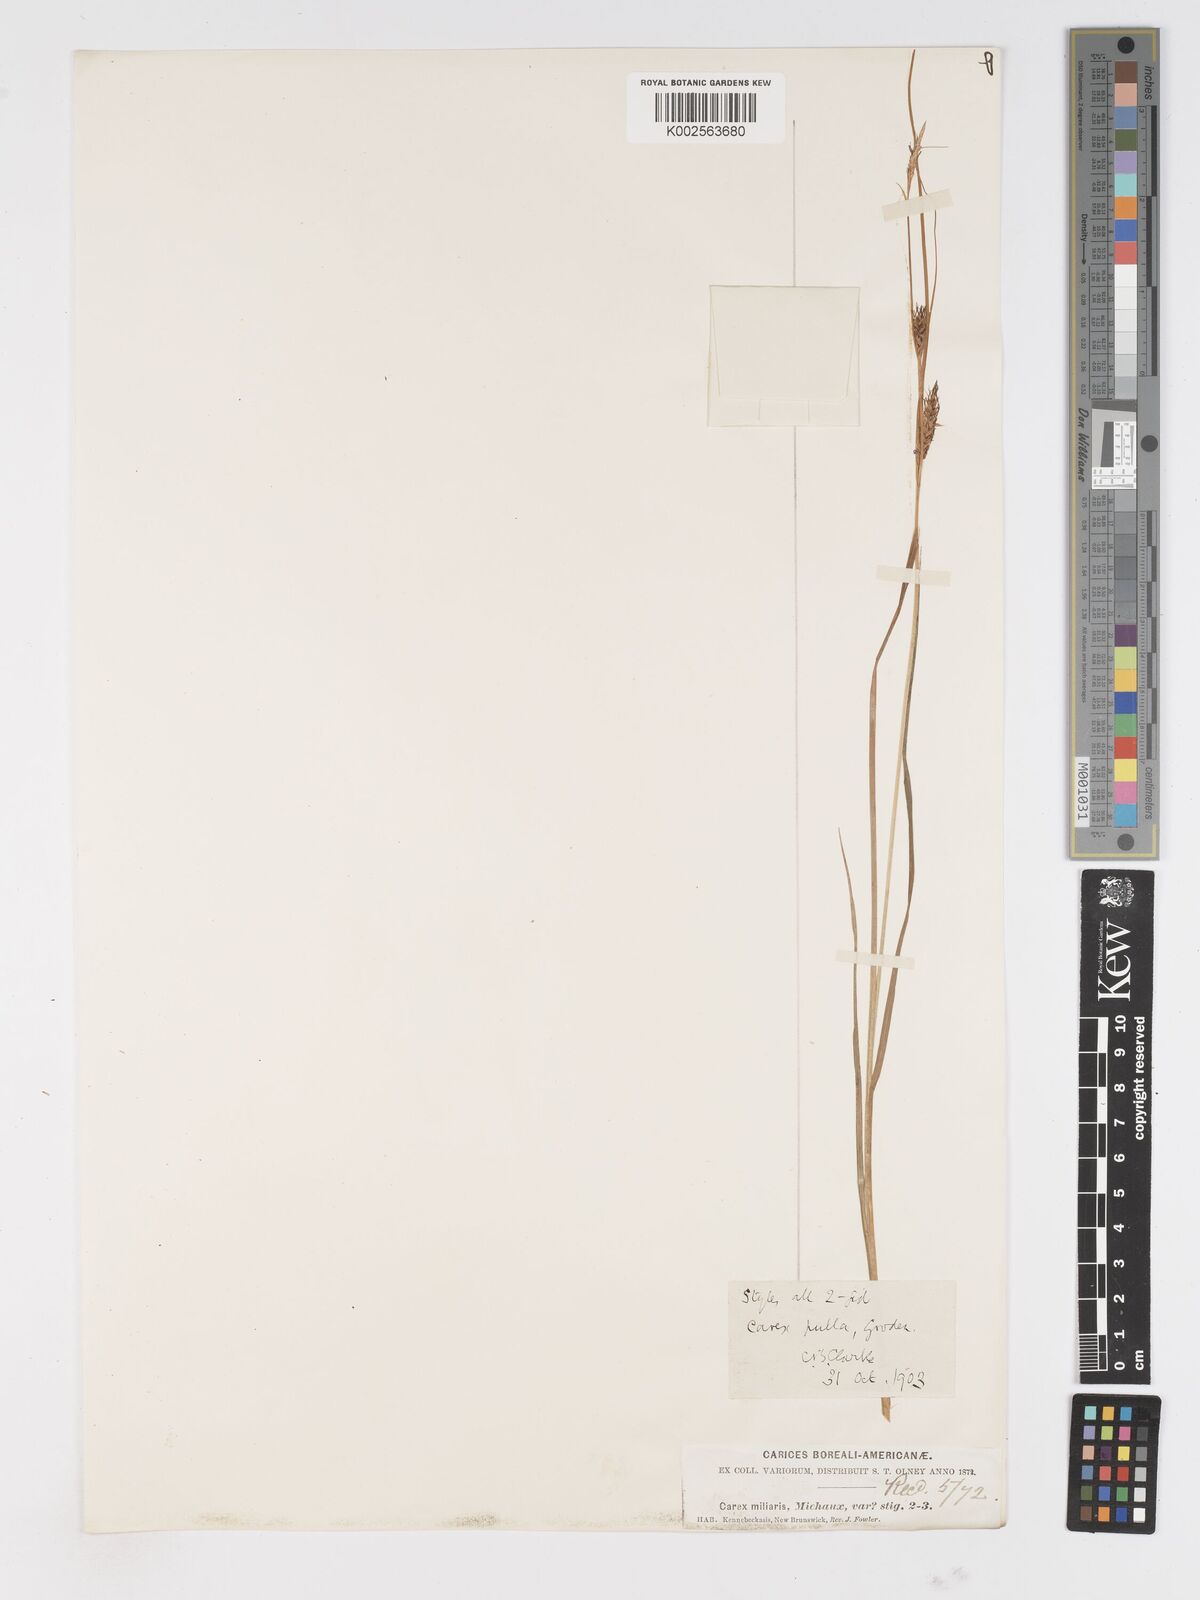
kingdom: Plantae
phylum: Tracheophyta
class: Liliopsida
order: Poales
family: Cyperaceae
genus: Carex
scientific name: Carex saxatilis
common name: Russet sedge
